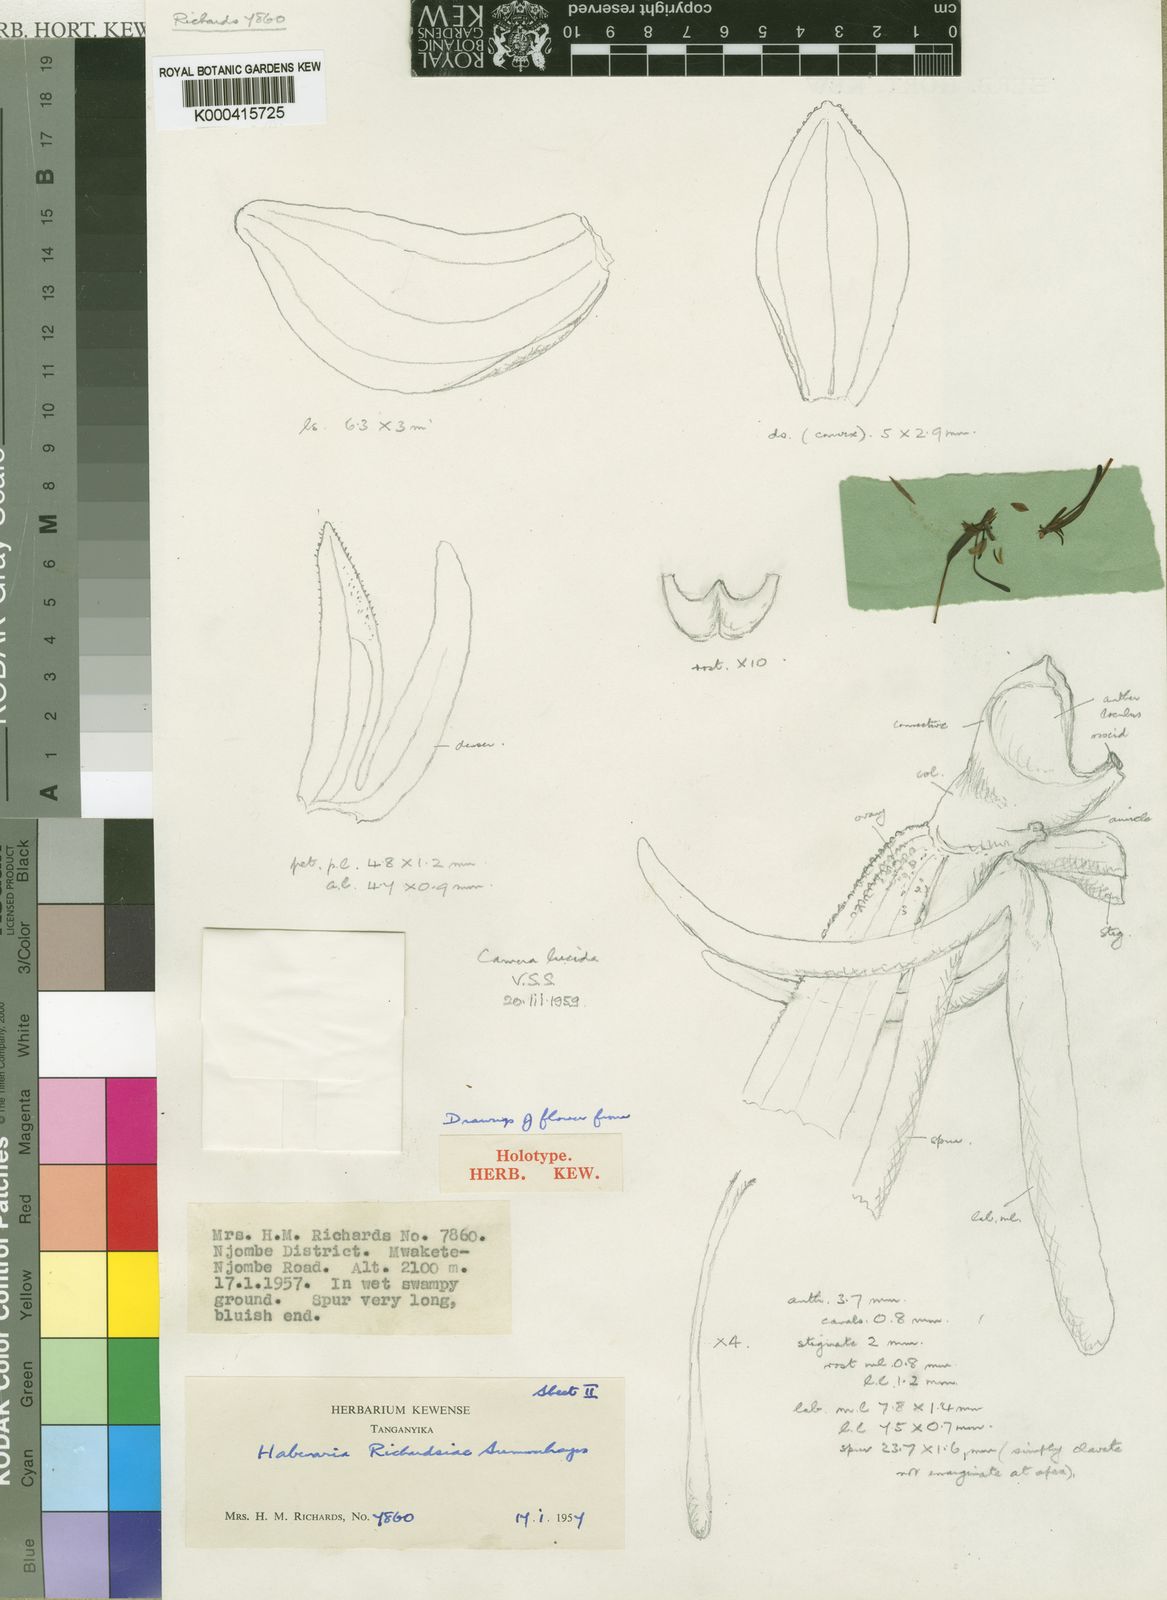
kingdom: Plantae
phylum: Tracheophyta
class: Liliopsida
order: Asparagales
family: Orchidaceae
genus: Habenaria
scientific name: Habenaria richardsiae
